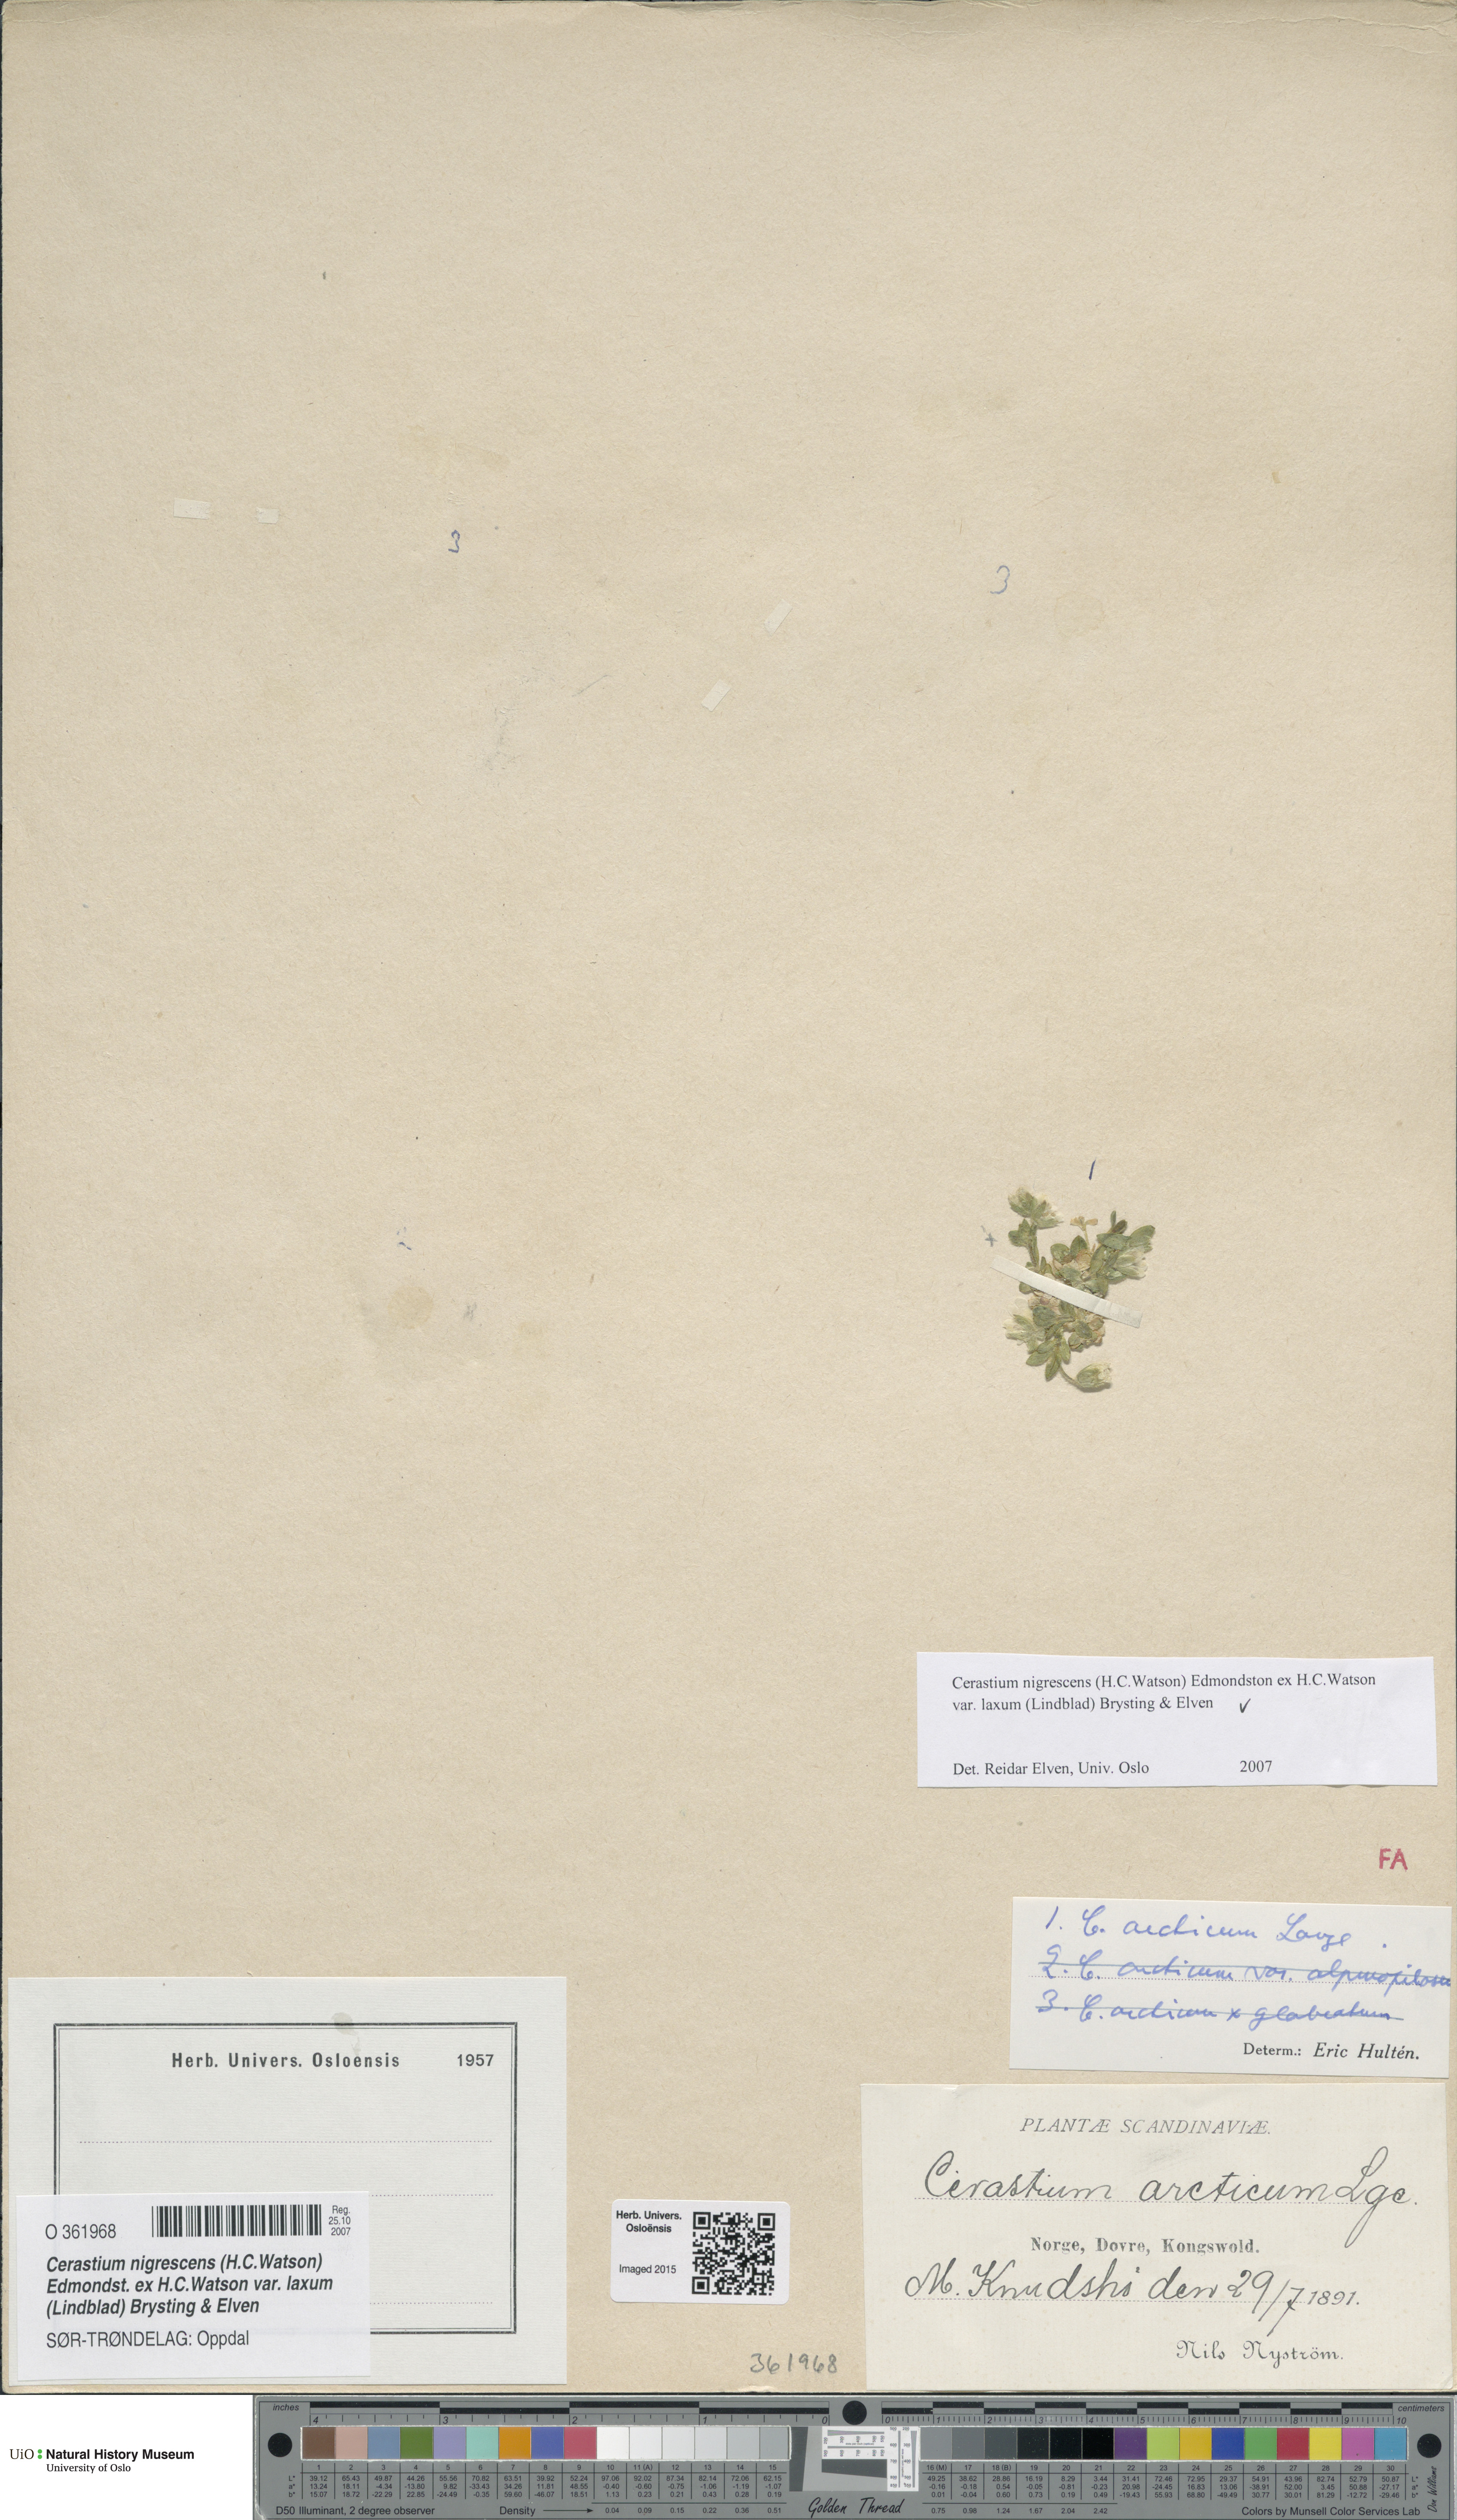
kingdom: Plantae
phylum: Tracheophyta
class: Magnoliopsida
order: Caryophyllales
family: Caryophyllaceae
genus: Cerastium
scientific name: Cerastium nigrescens
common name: Shetland mouse-ear
